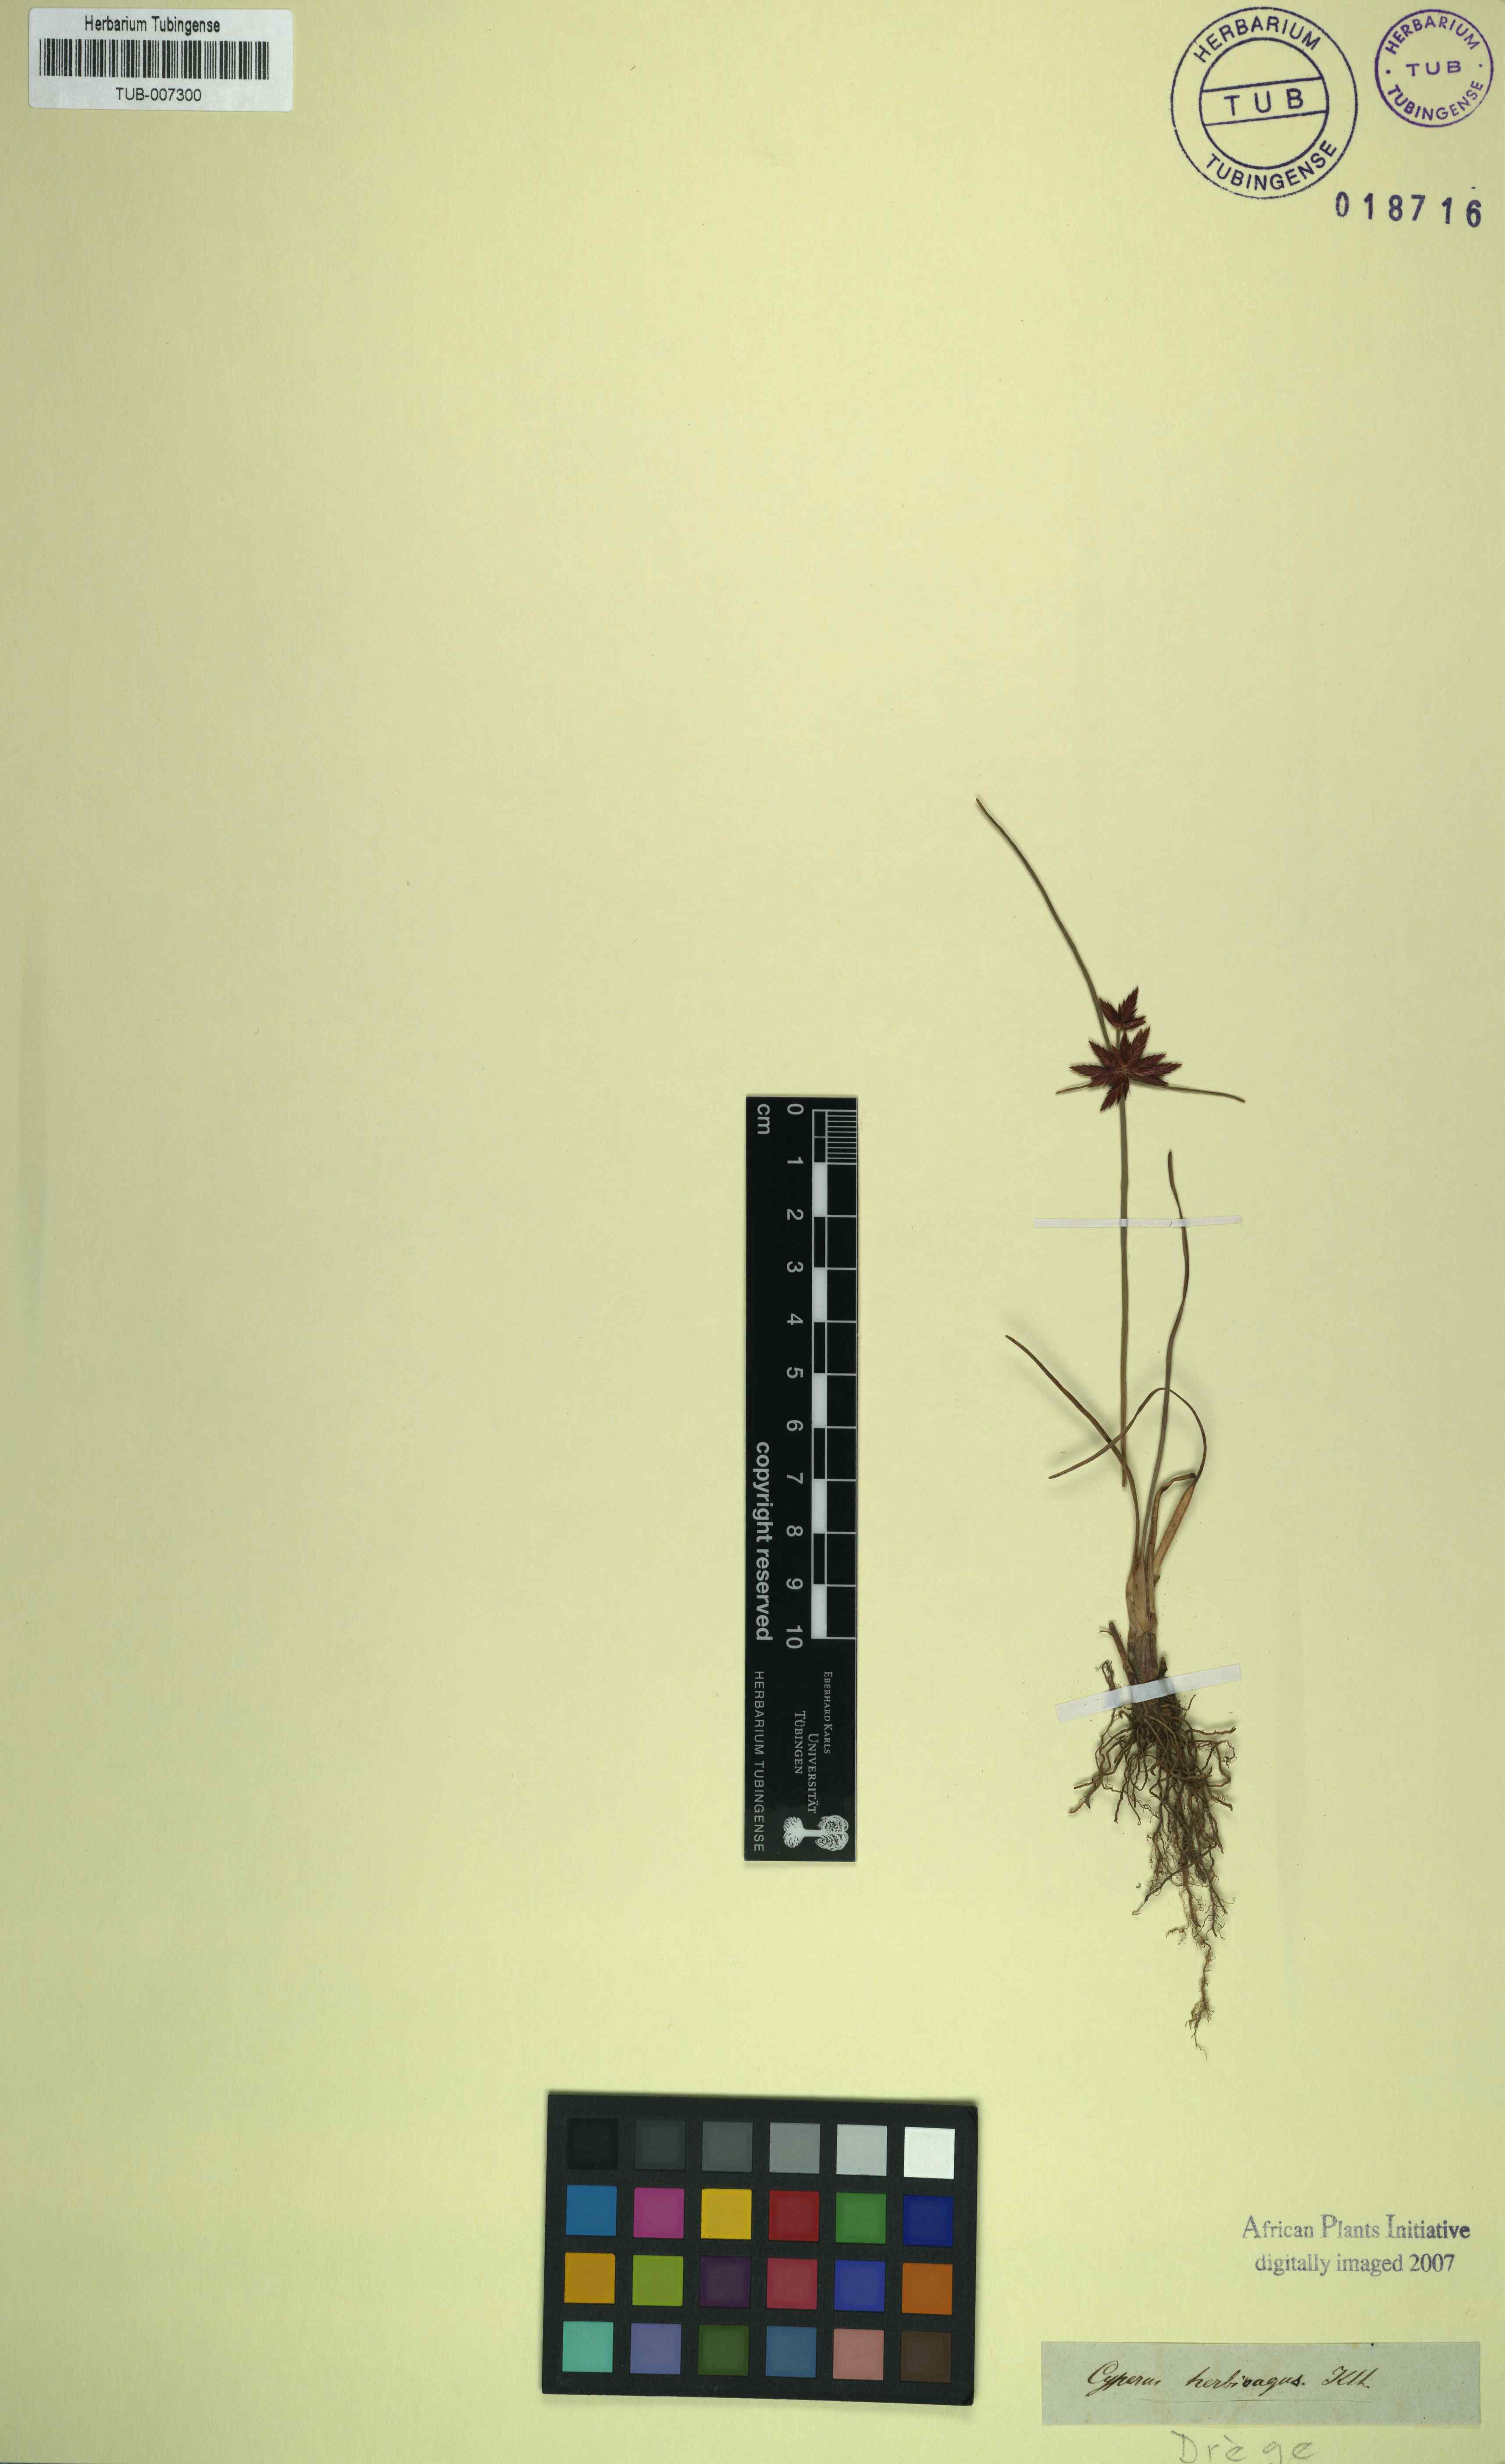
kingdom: Plantae
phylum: Tracheophyta
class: Liliopsida
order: Poales
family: Cyperaceae
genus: Cyperus
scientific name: Cyperus semitrifidus
